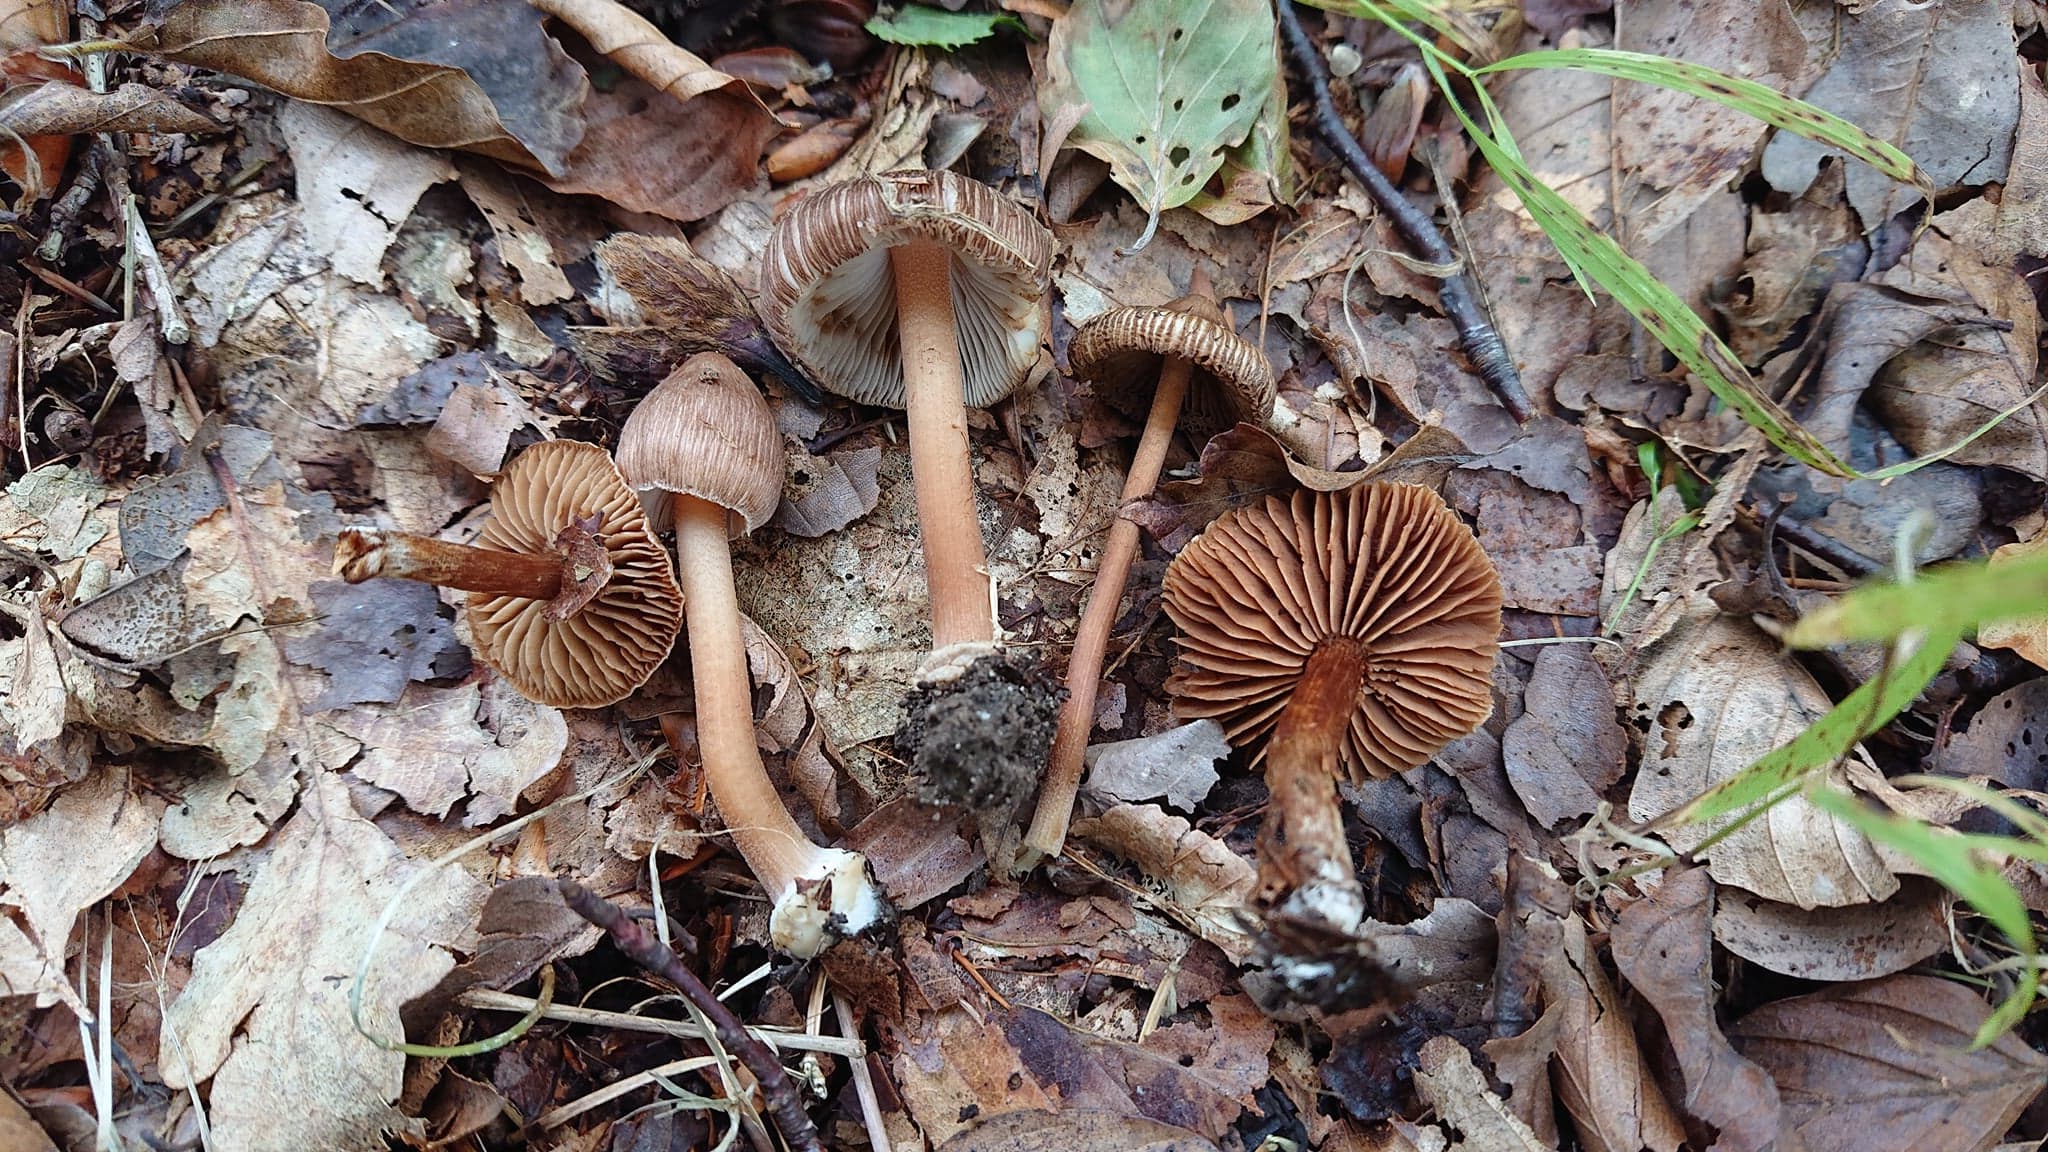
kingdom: Fungi
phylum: Basidiomycota
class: Agaricomycetes
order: Agaricales
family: Inocybaceae
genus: Inocybe
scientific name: Inocybe asterospora
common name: stjernesporet trævlhat
